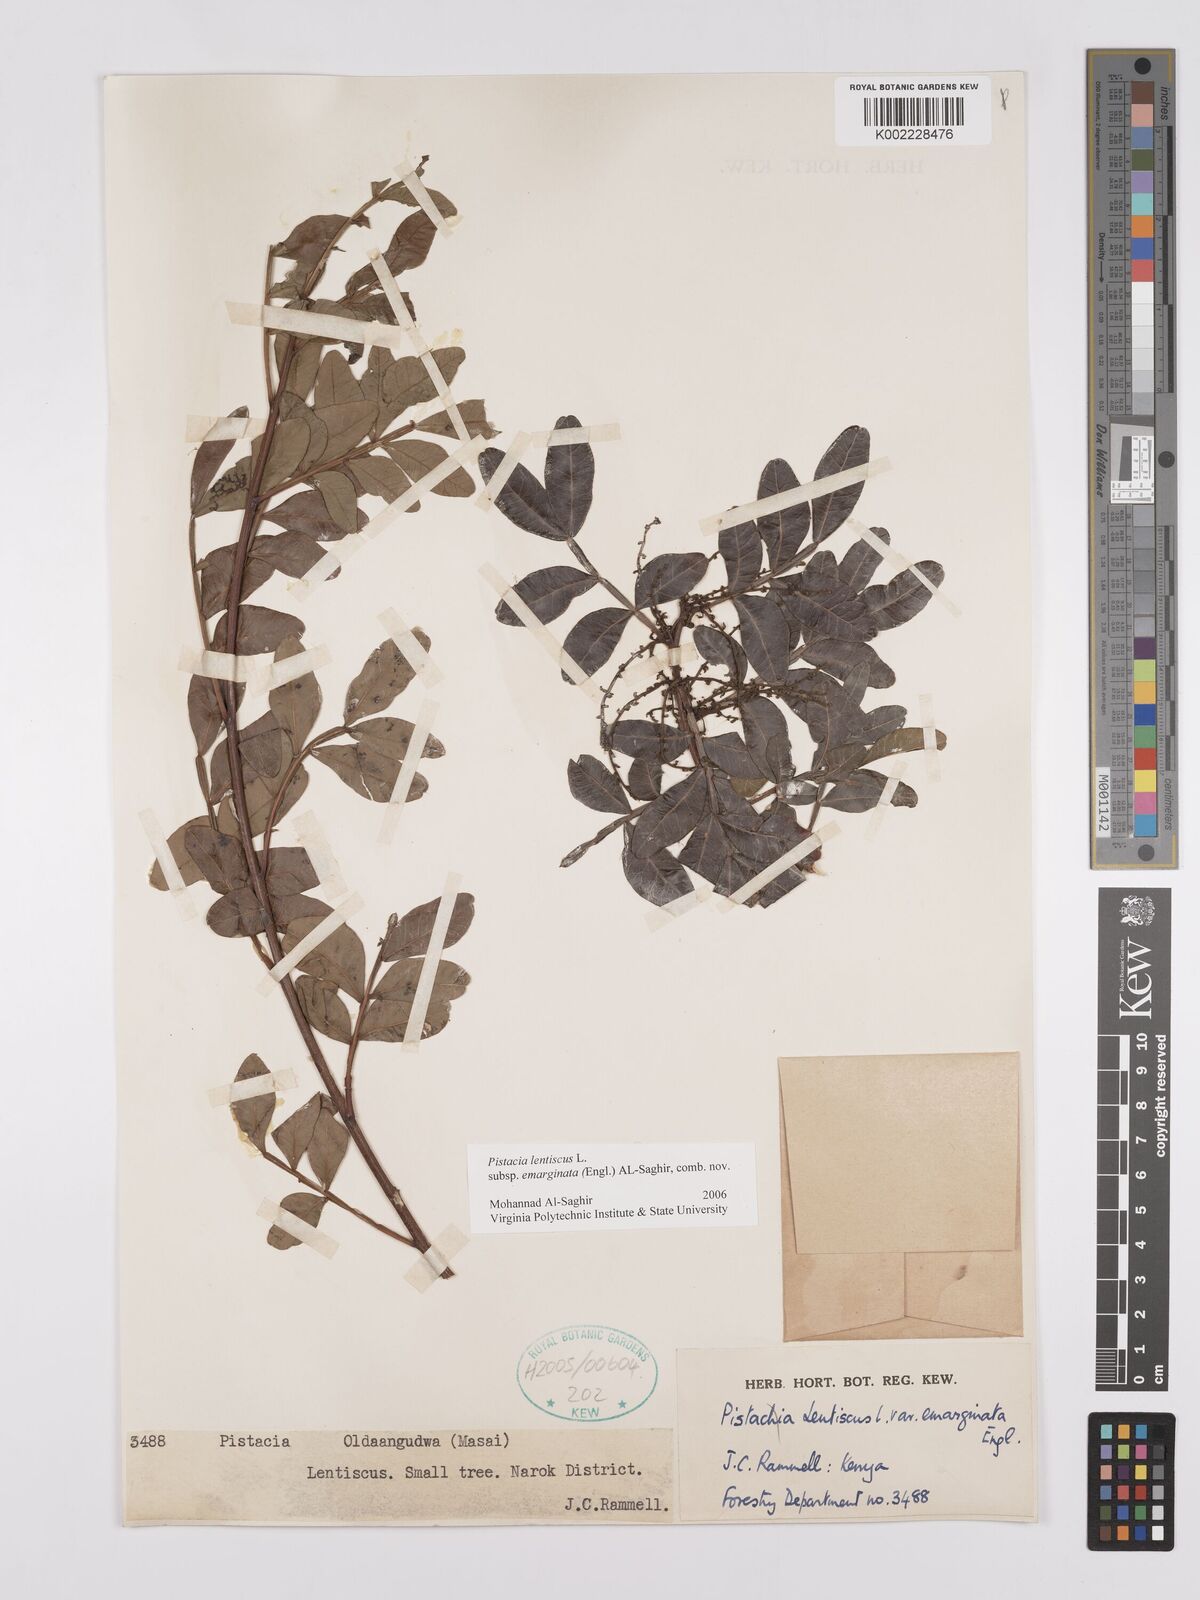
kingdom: Plantae
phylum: Tracheophyta
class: Magnoliopsida
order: Sapindales
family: Anacardiaceae
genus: Pistacia
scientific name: Pistacia lentiscus
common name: Lentisk
